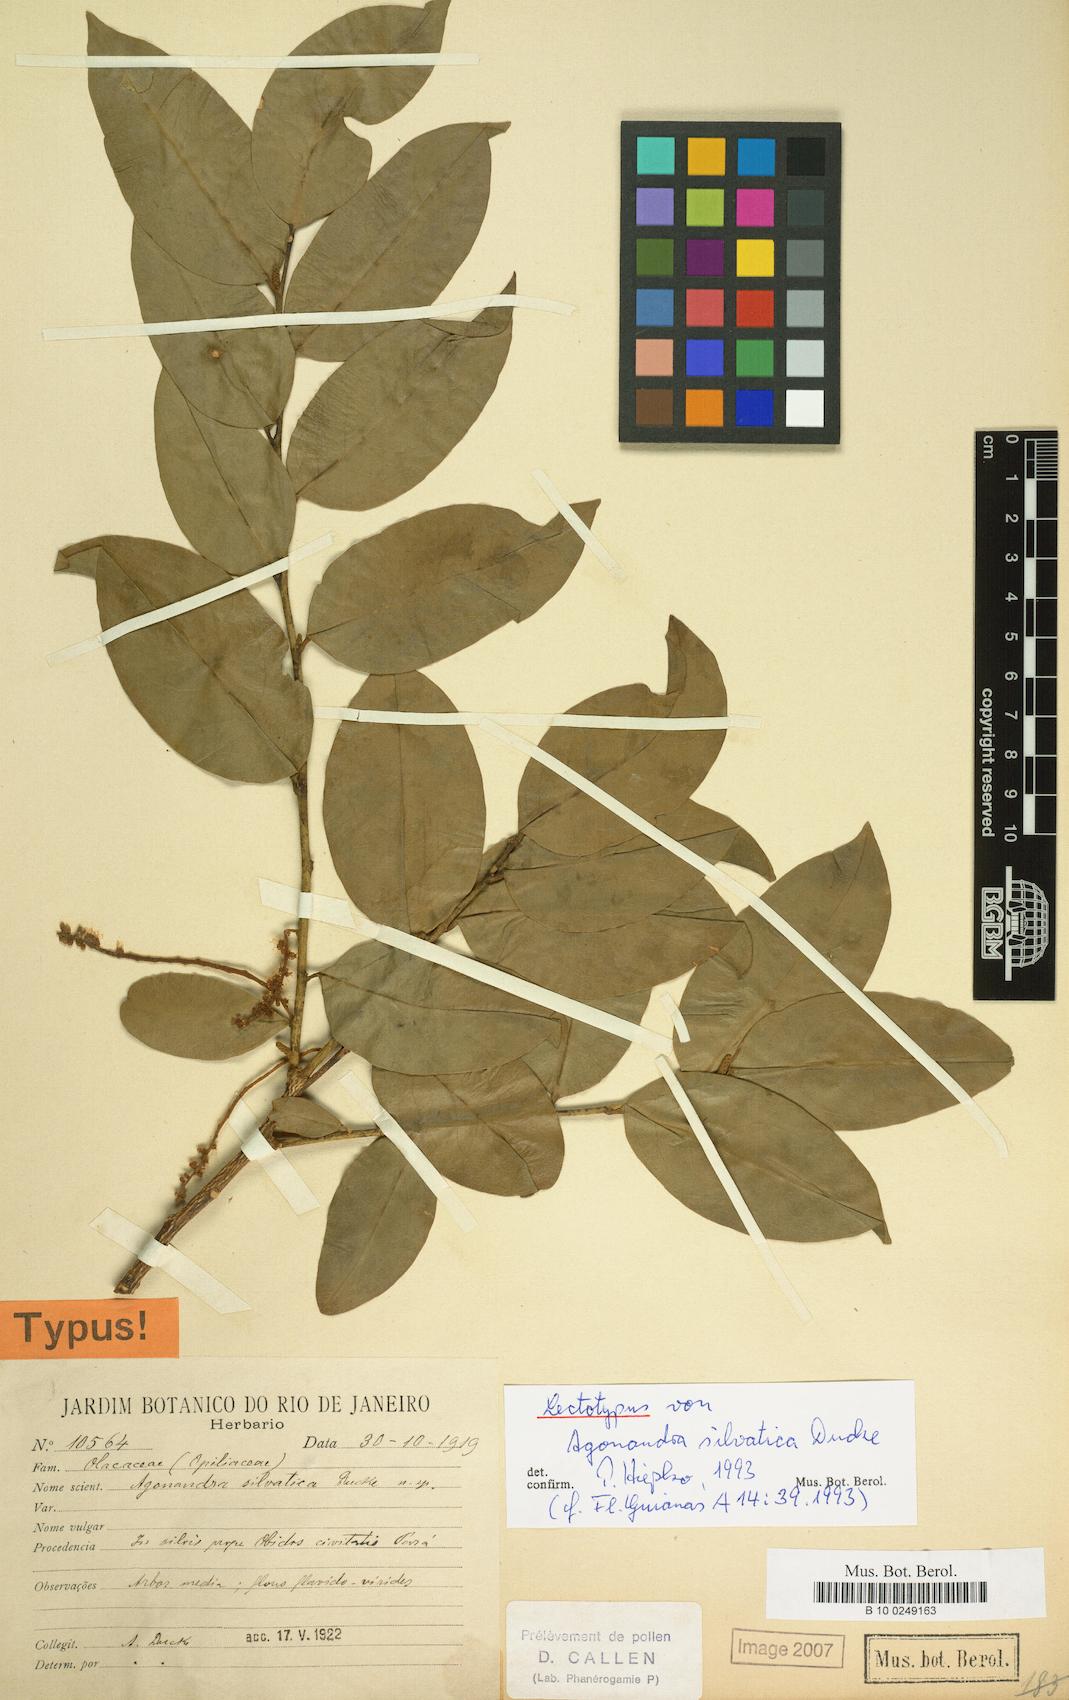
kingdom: Plantae
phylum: Tracheophyta
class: Magnoliopsida
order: Santalales
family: Opiliaceae
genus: Agonandra
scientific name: Agonandra silvatica
